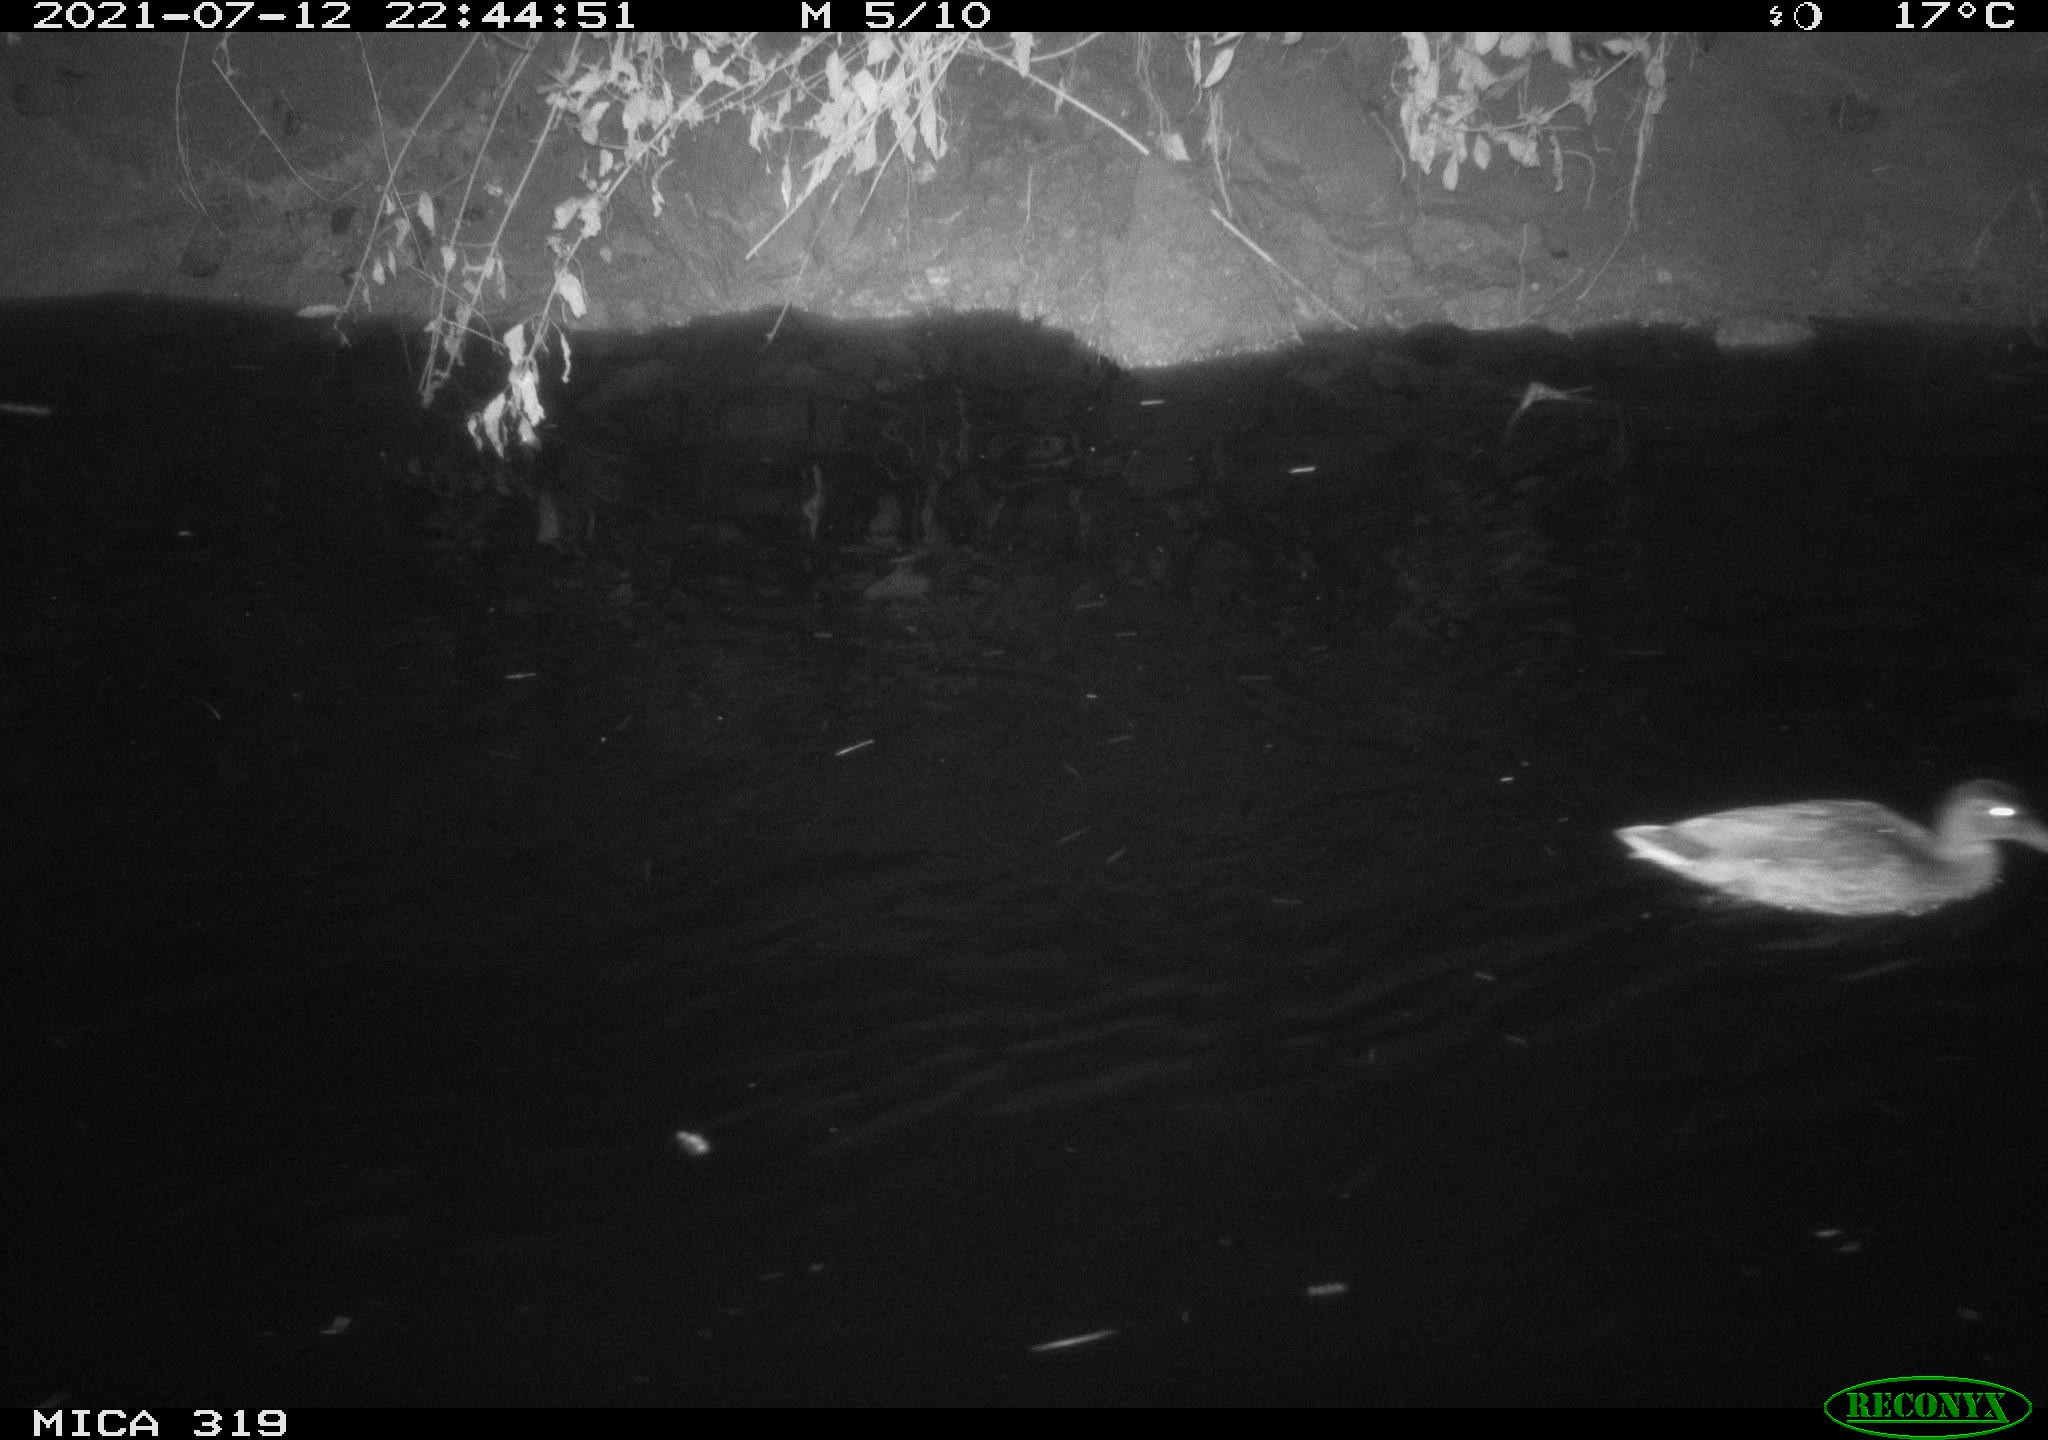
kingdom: Animalia
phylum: Chordata
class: Aves
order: Anseriformes
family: Anatidae
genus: Anas
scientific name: Anas platyrhynchos
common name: Mallard
